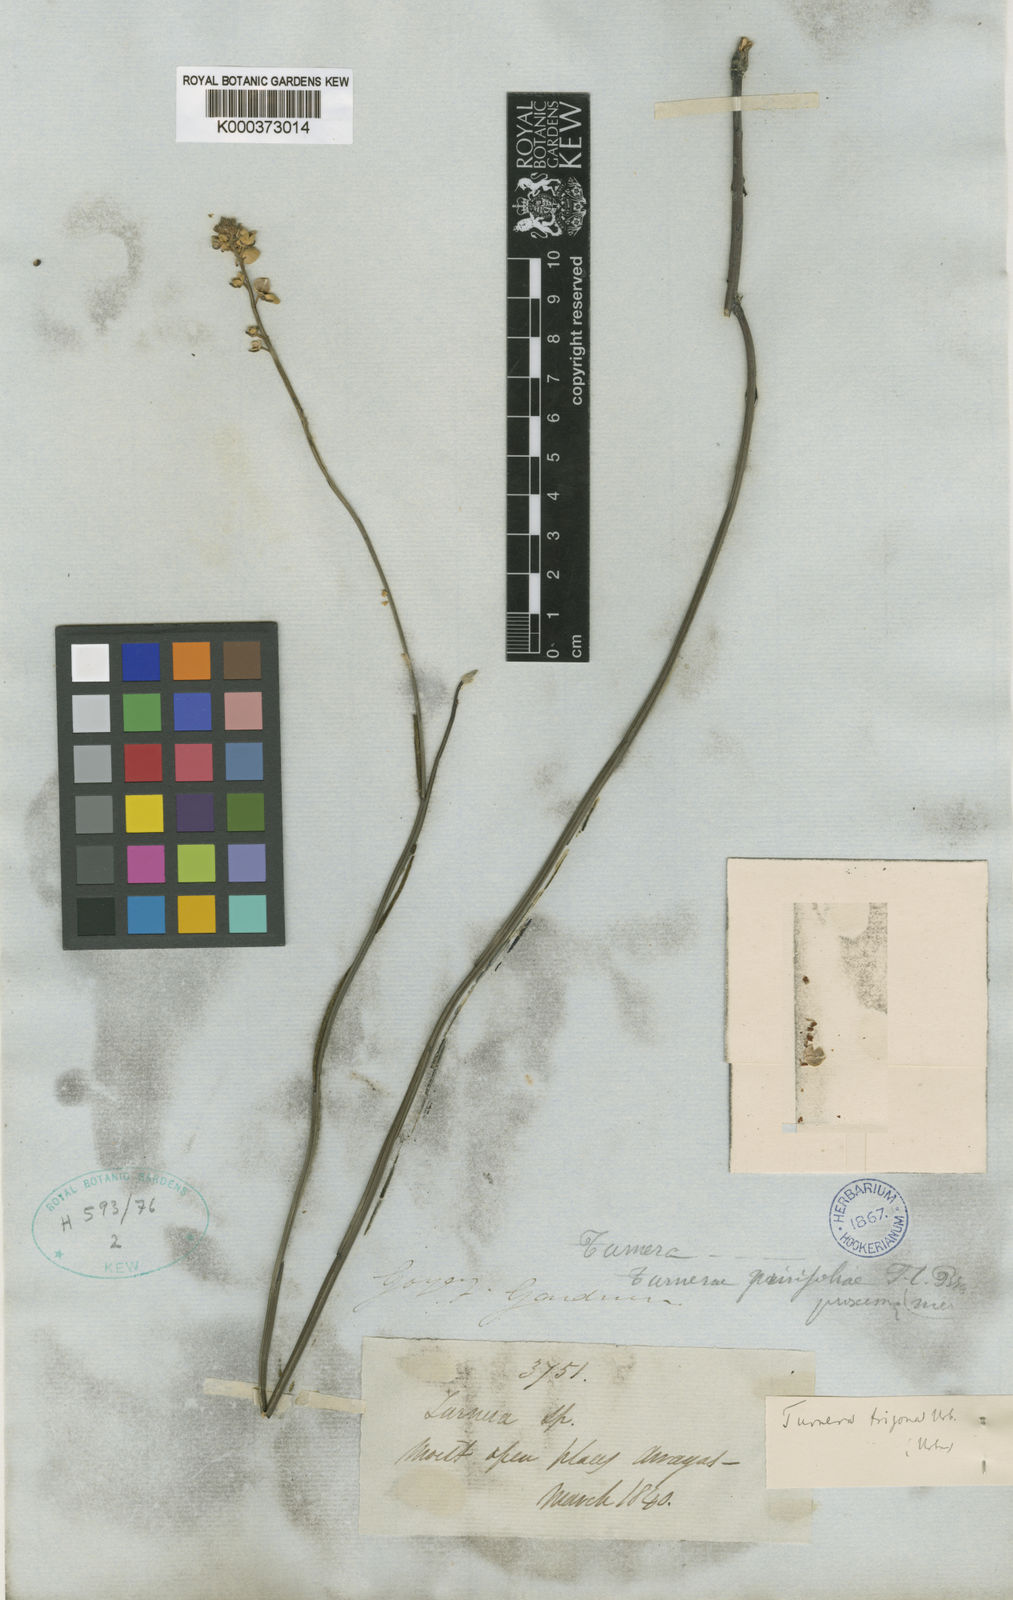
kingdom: Plantae
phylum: Tracheophyta
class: Magnoliopsida
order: Malpighiales
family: Turneraceae
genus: Turnera
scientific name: Turnera trigona
